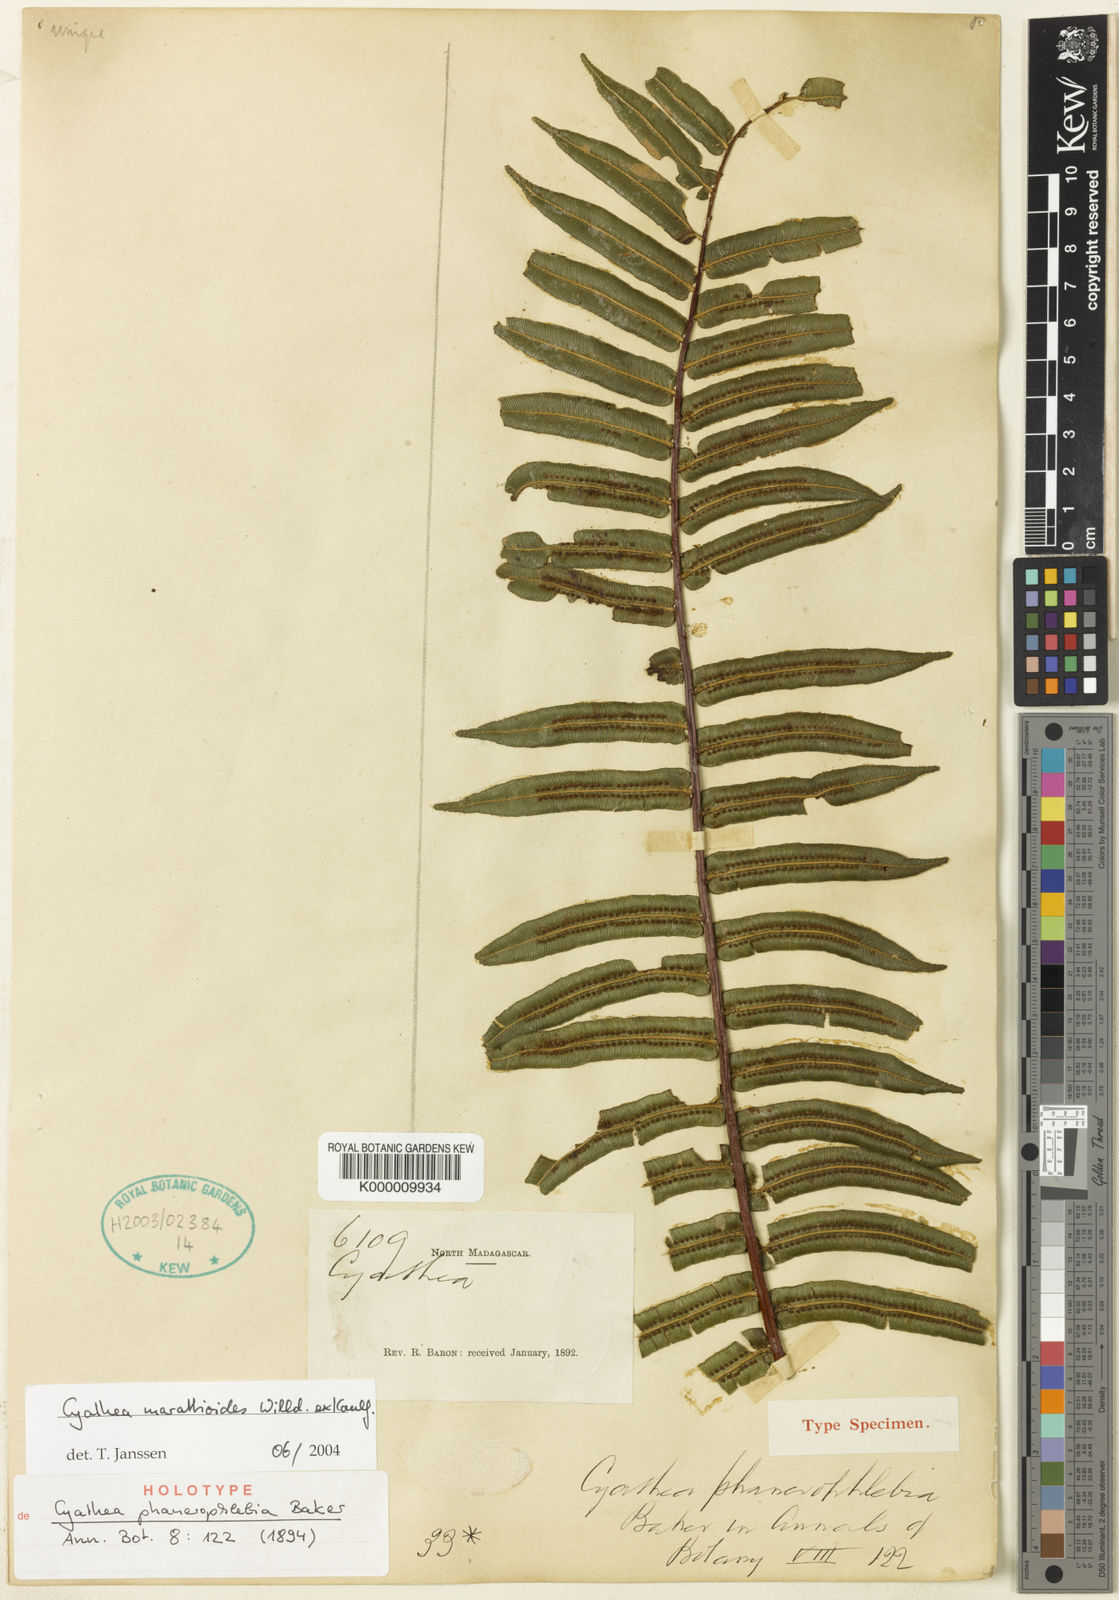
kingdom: Plantae
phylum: Tracheophyta
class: Polypodiopsida
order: Cyatheales
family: Cyatheaceae
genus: Alsophila
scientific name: Alsophila marattioides
